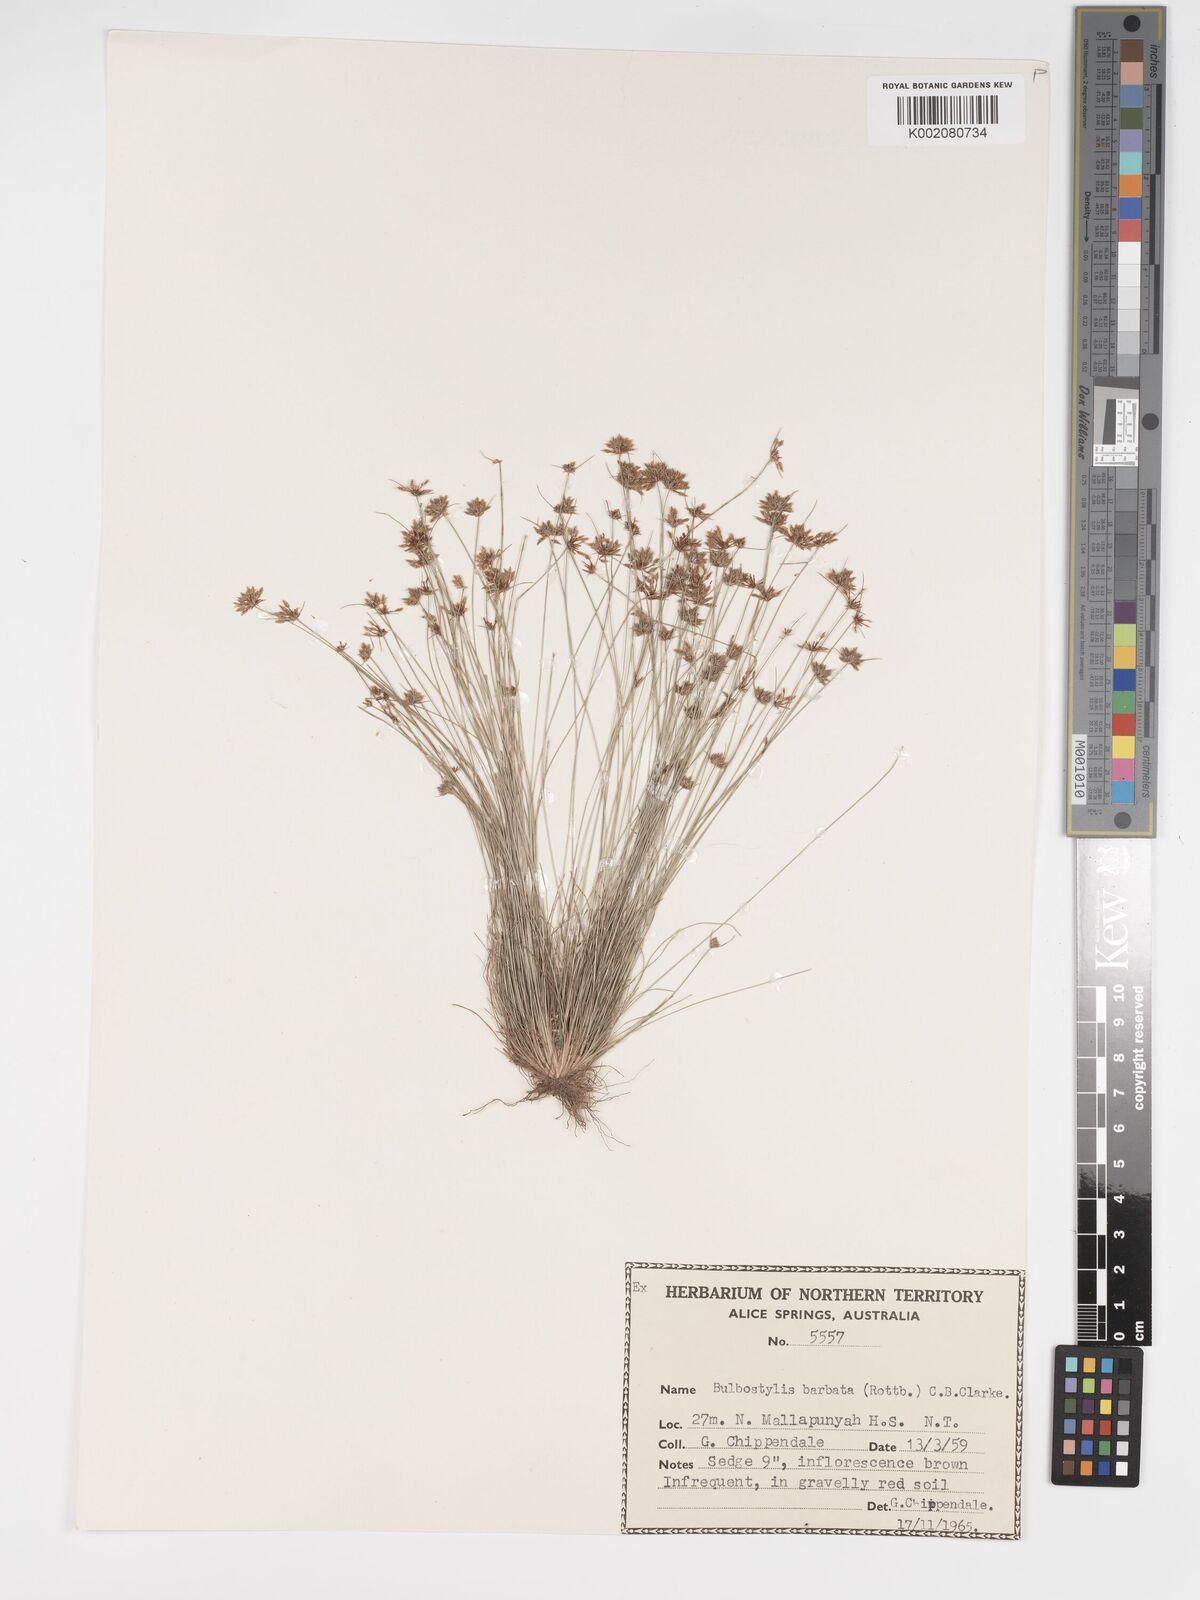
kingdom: Plantae
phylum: Tracheophyta
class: Liliopsida
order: Poales
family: Cyperaceae
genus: Bulbostylis
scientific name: Bulbostylis barbata
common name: Watergrass
